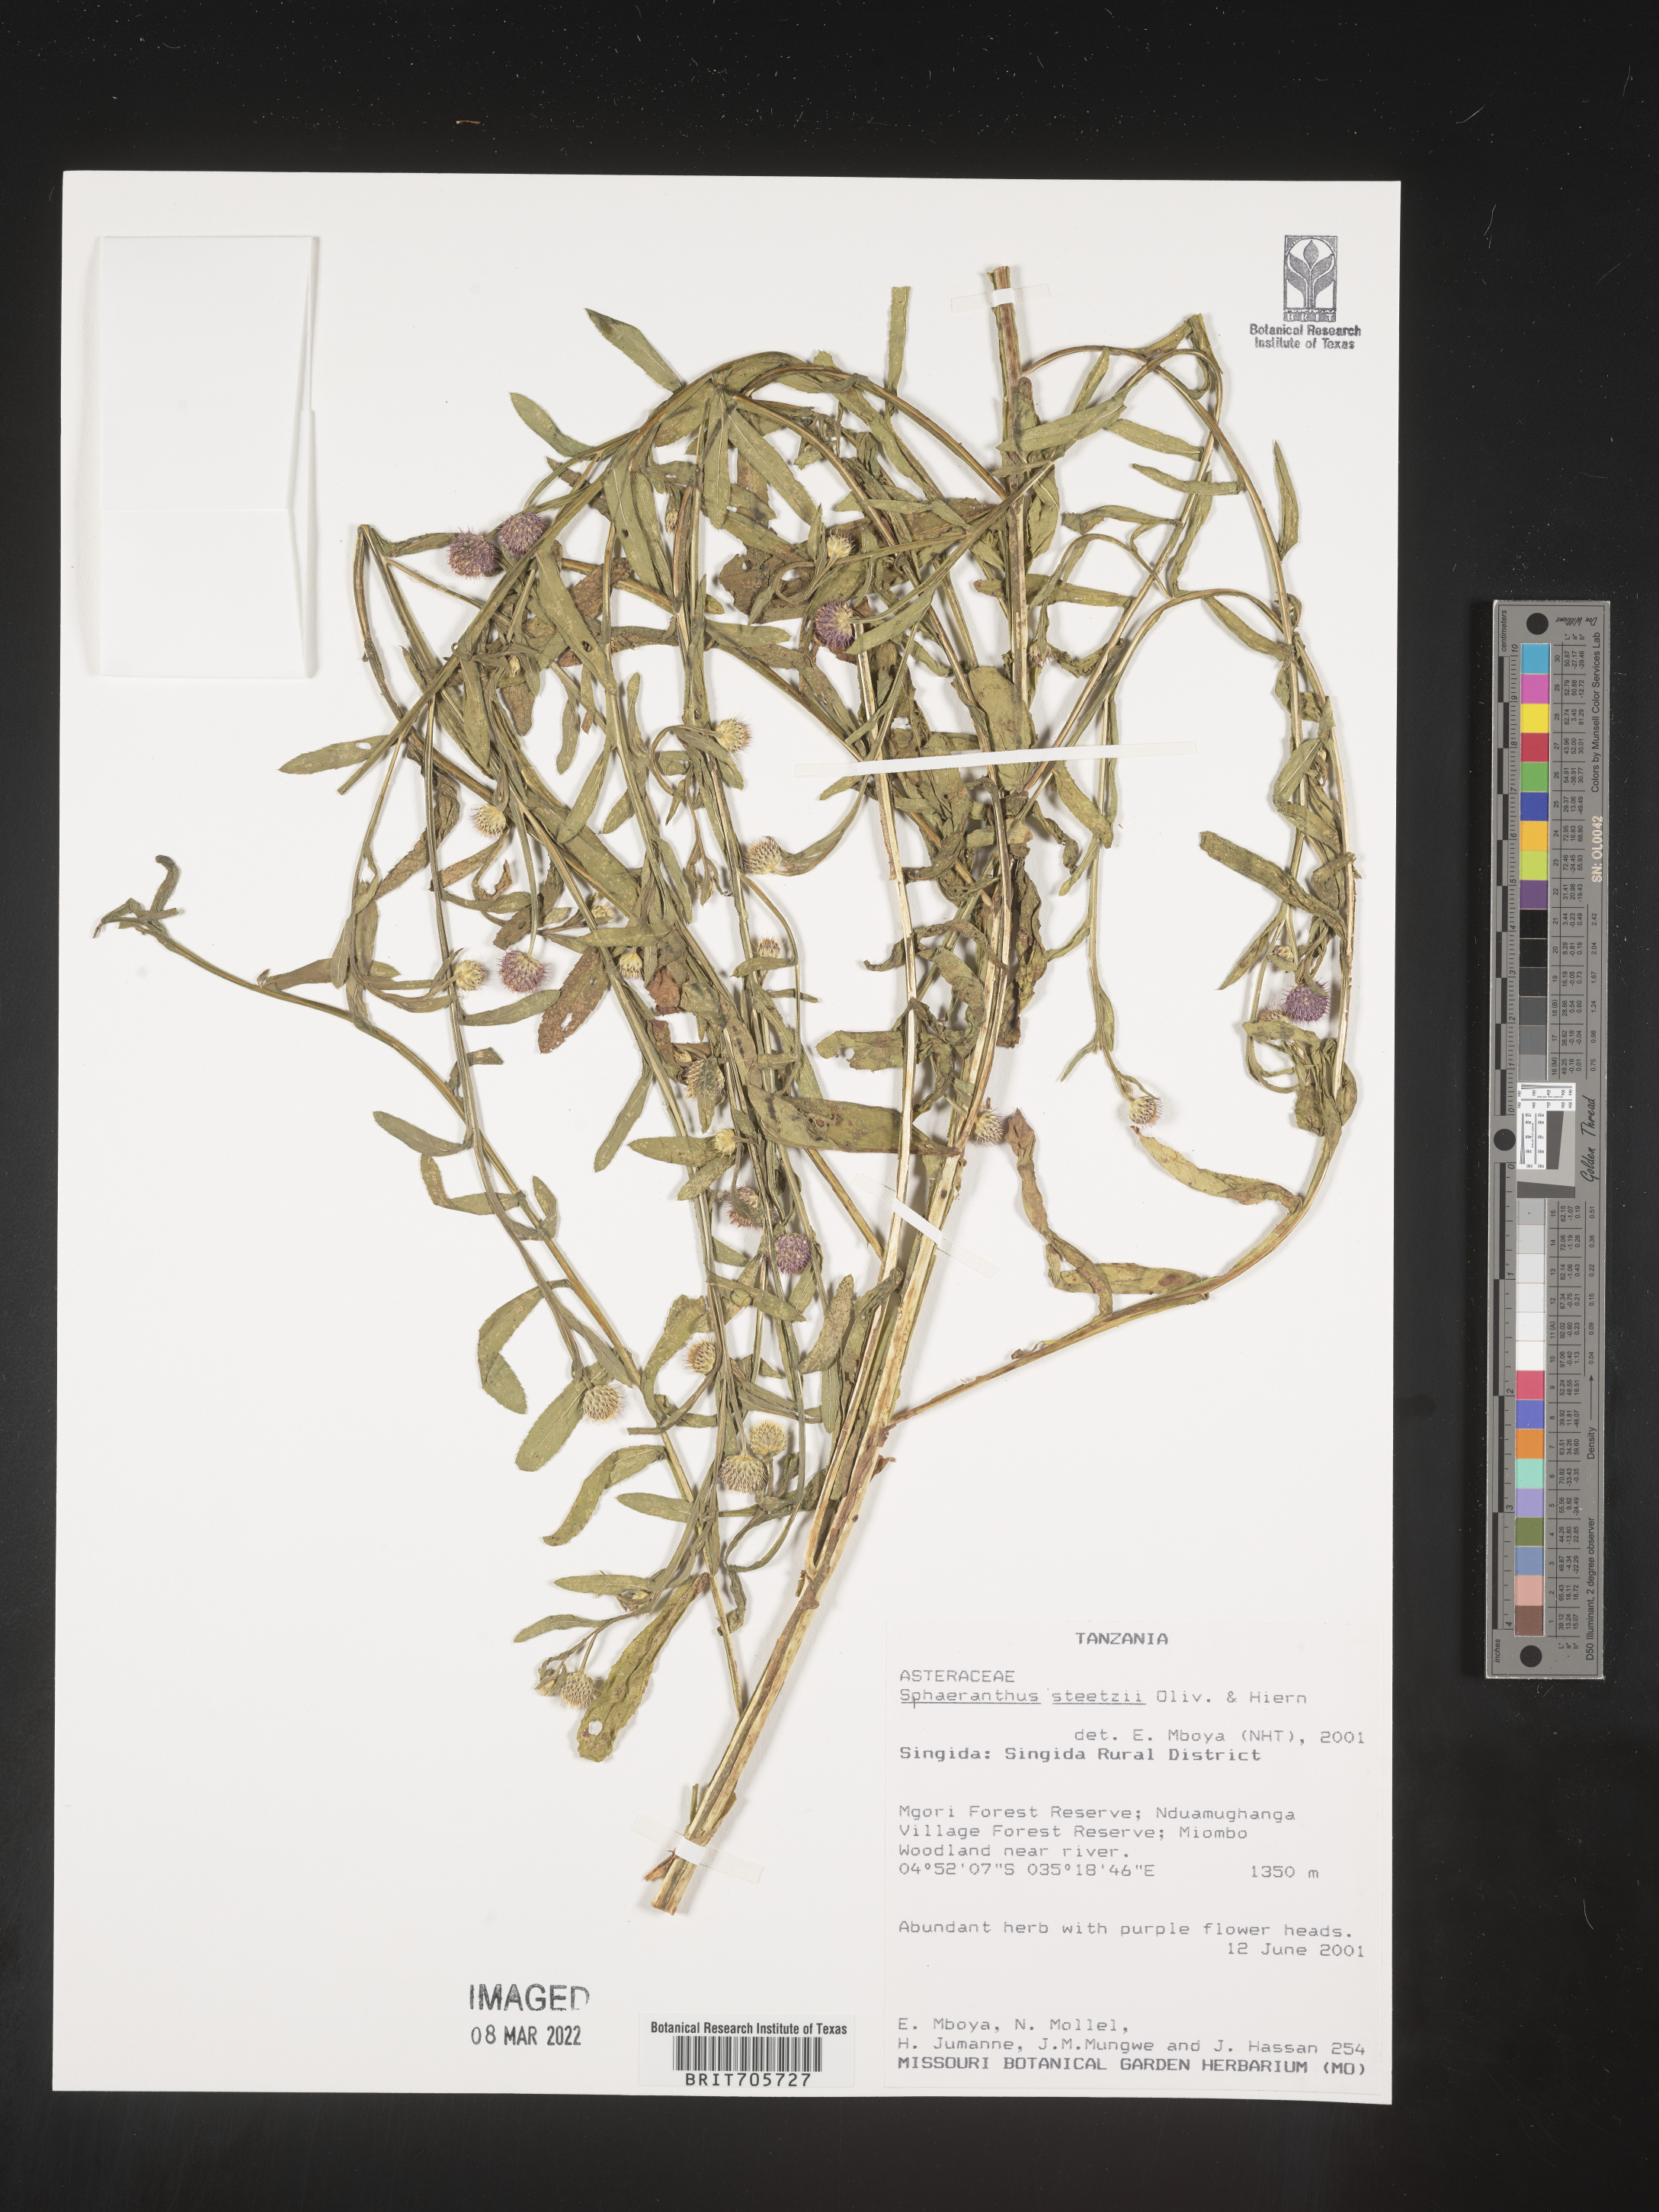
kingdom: Plantae
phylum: Tracheophyta
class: Magnoliopsida
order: Asterales
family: Asteraceae
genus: Sphaeranthus
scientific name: Sphaeranthus
